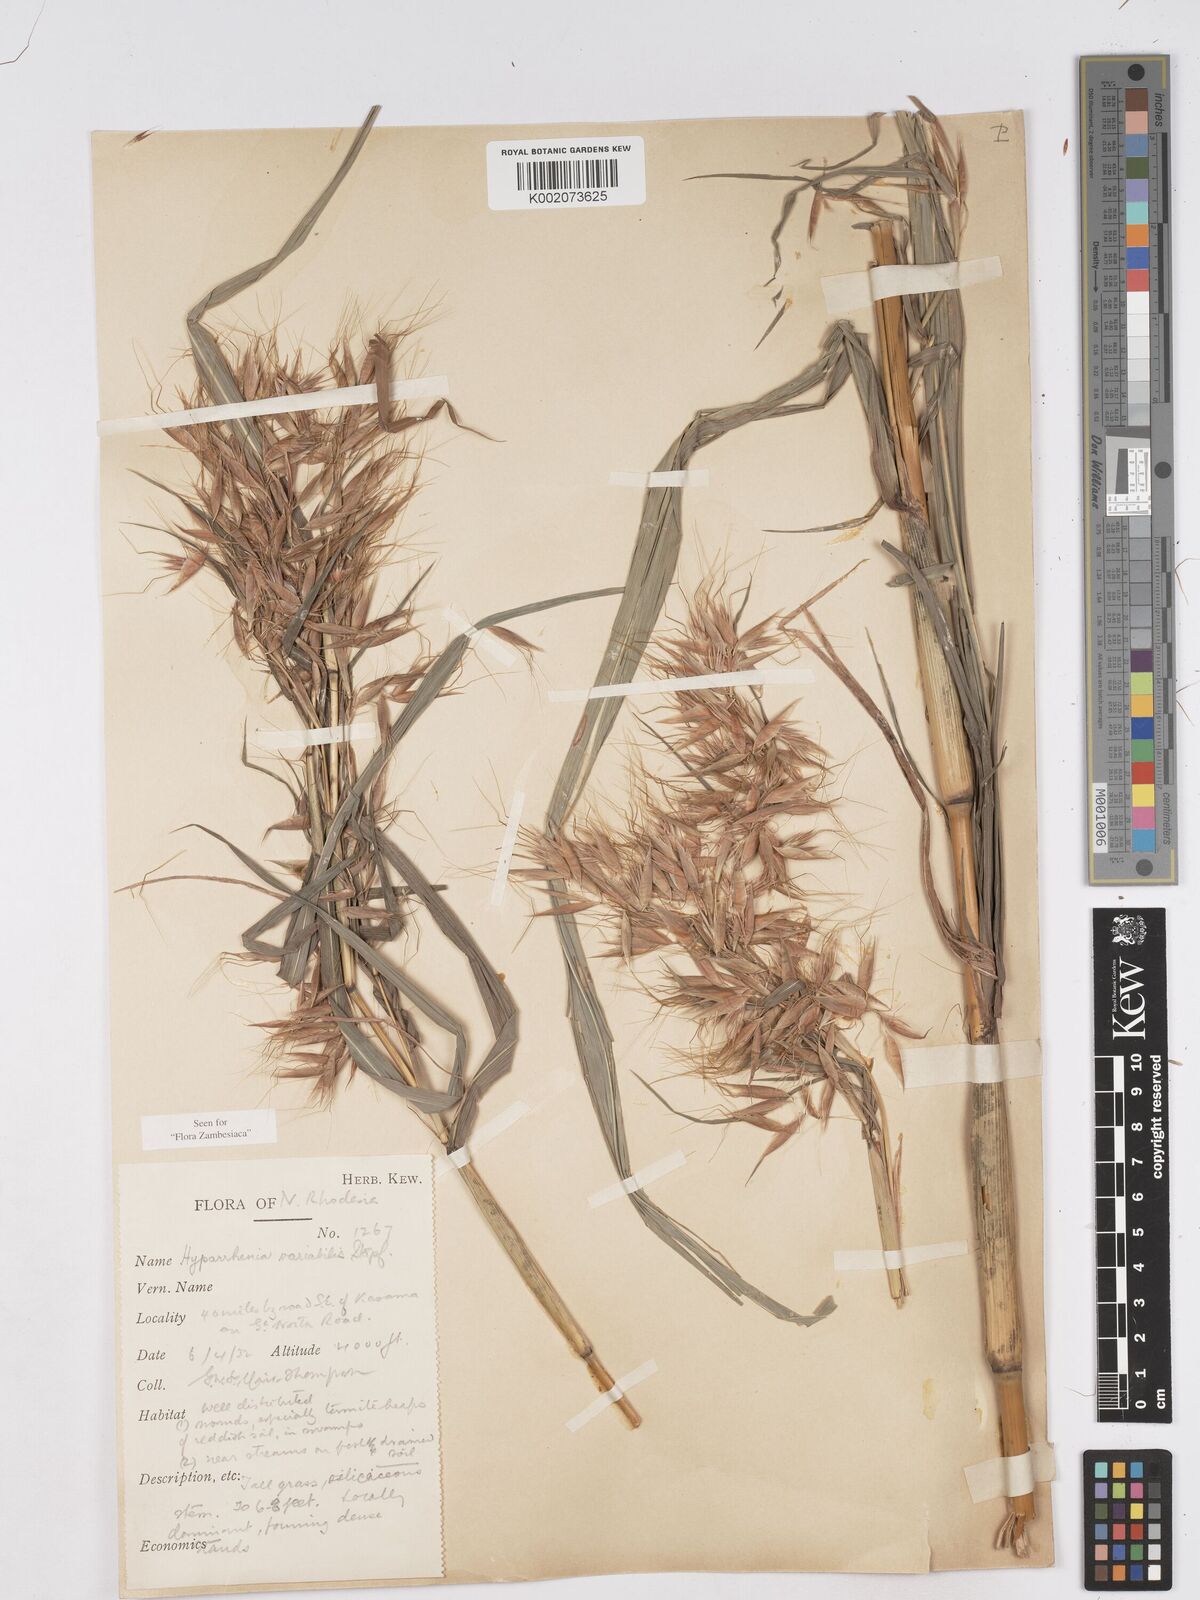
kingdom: Plantae
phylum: Tracheophyta
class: Liliopsida
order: Poales
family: Poaceae
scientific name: Poaceae
